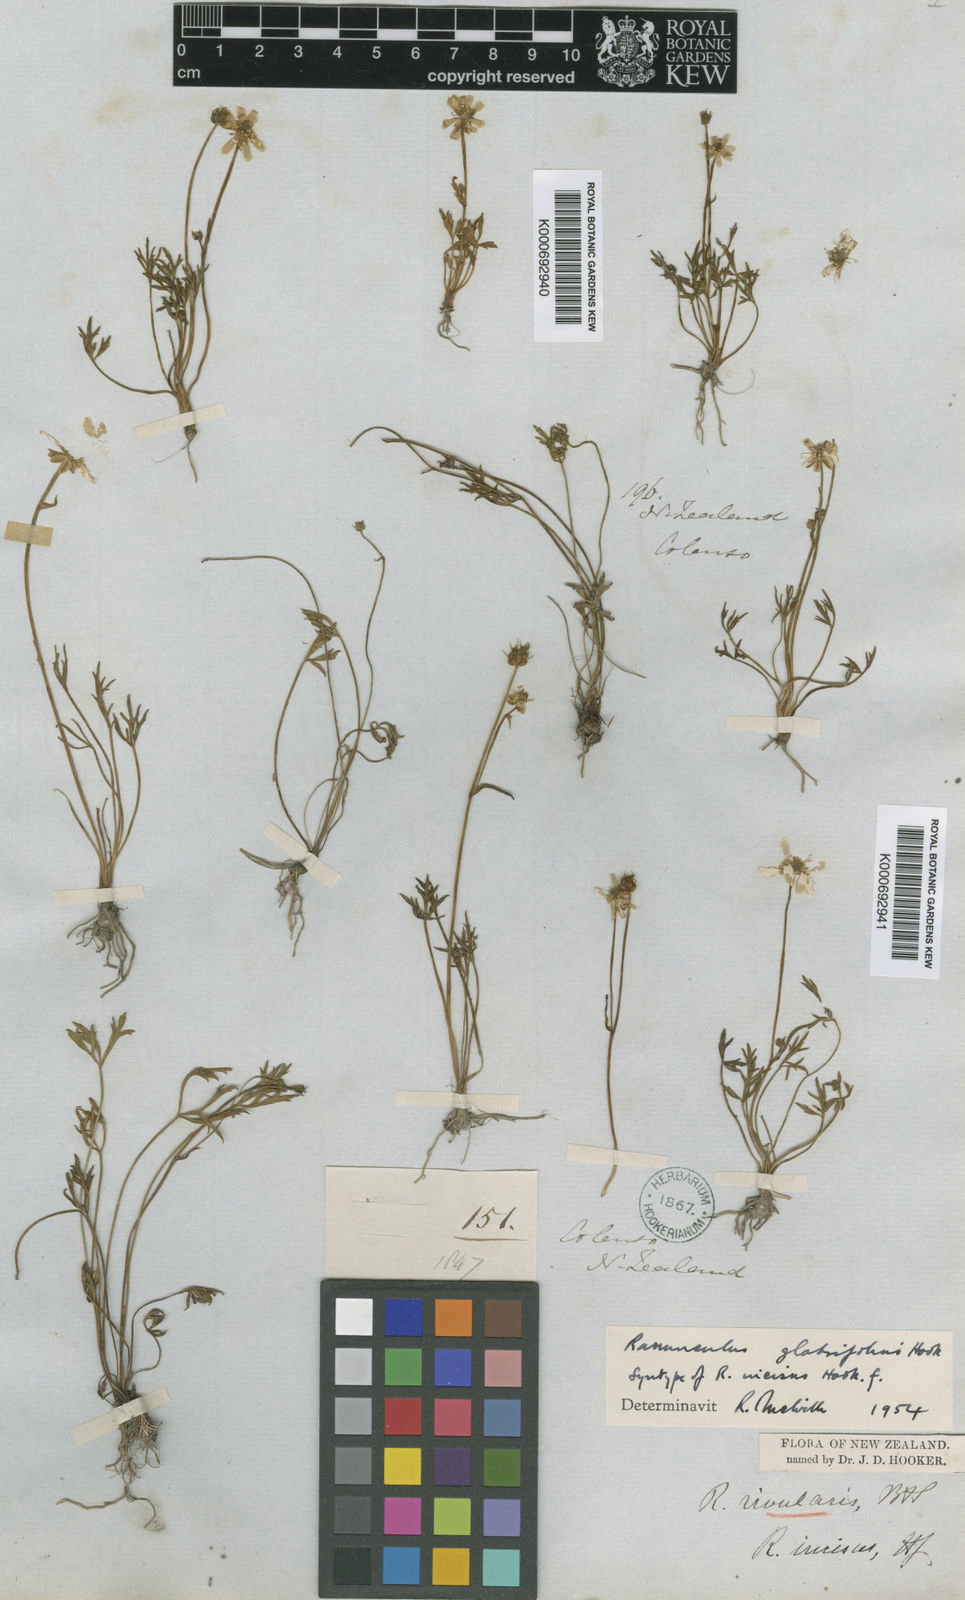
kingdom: Plantae
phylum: Tracheophyta
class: Magnoliopsida
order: Ranunculales
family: Ranunculaceae
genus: Ranunculus
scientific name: Ranunculus glabrifolius
